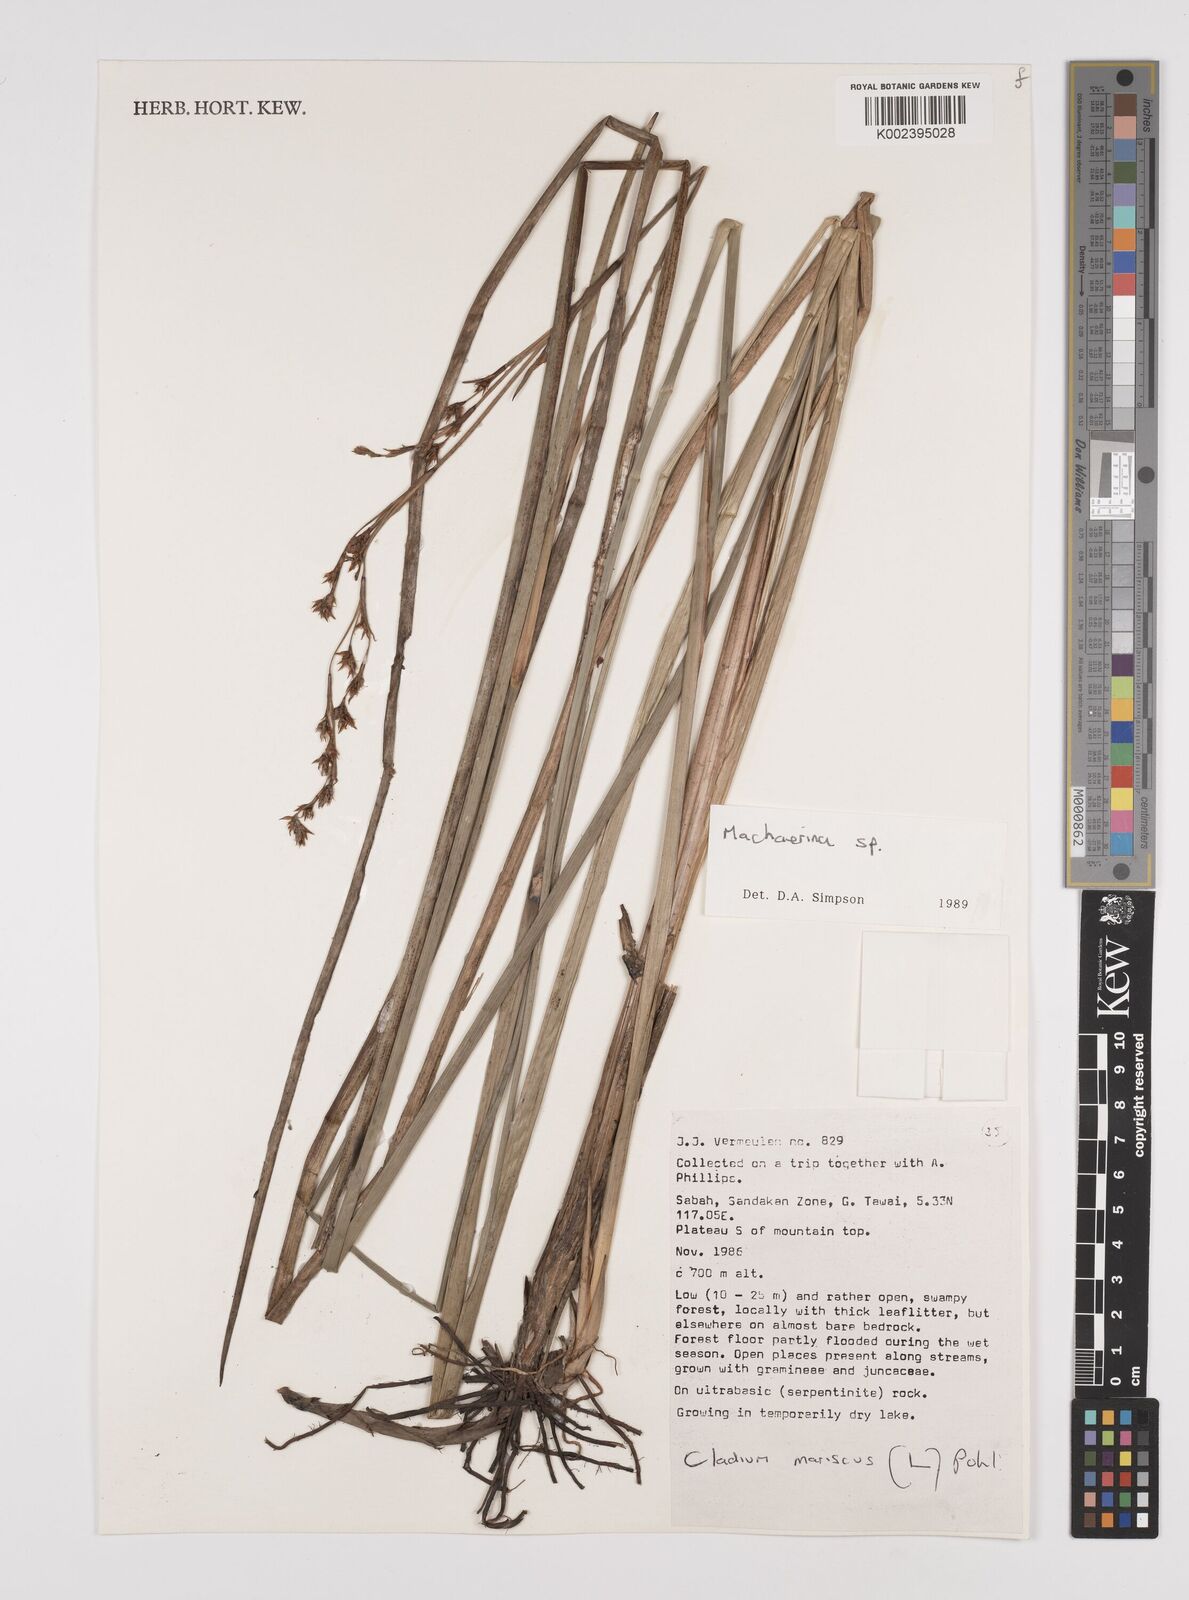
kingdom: Plantae
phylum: Tracheophyta
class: Liliopsida
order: Poales
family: Cyperaceae
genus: Machaerina
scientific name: Machaerina
